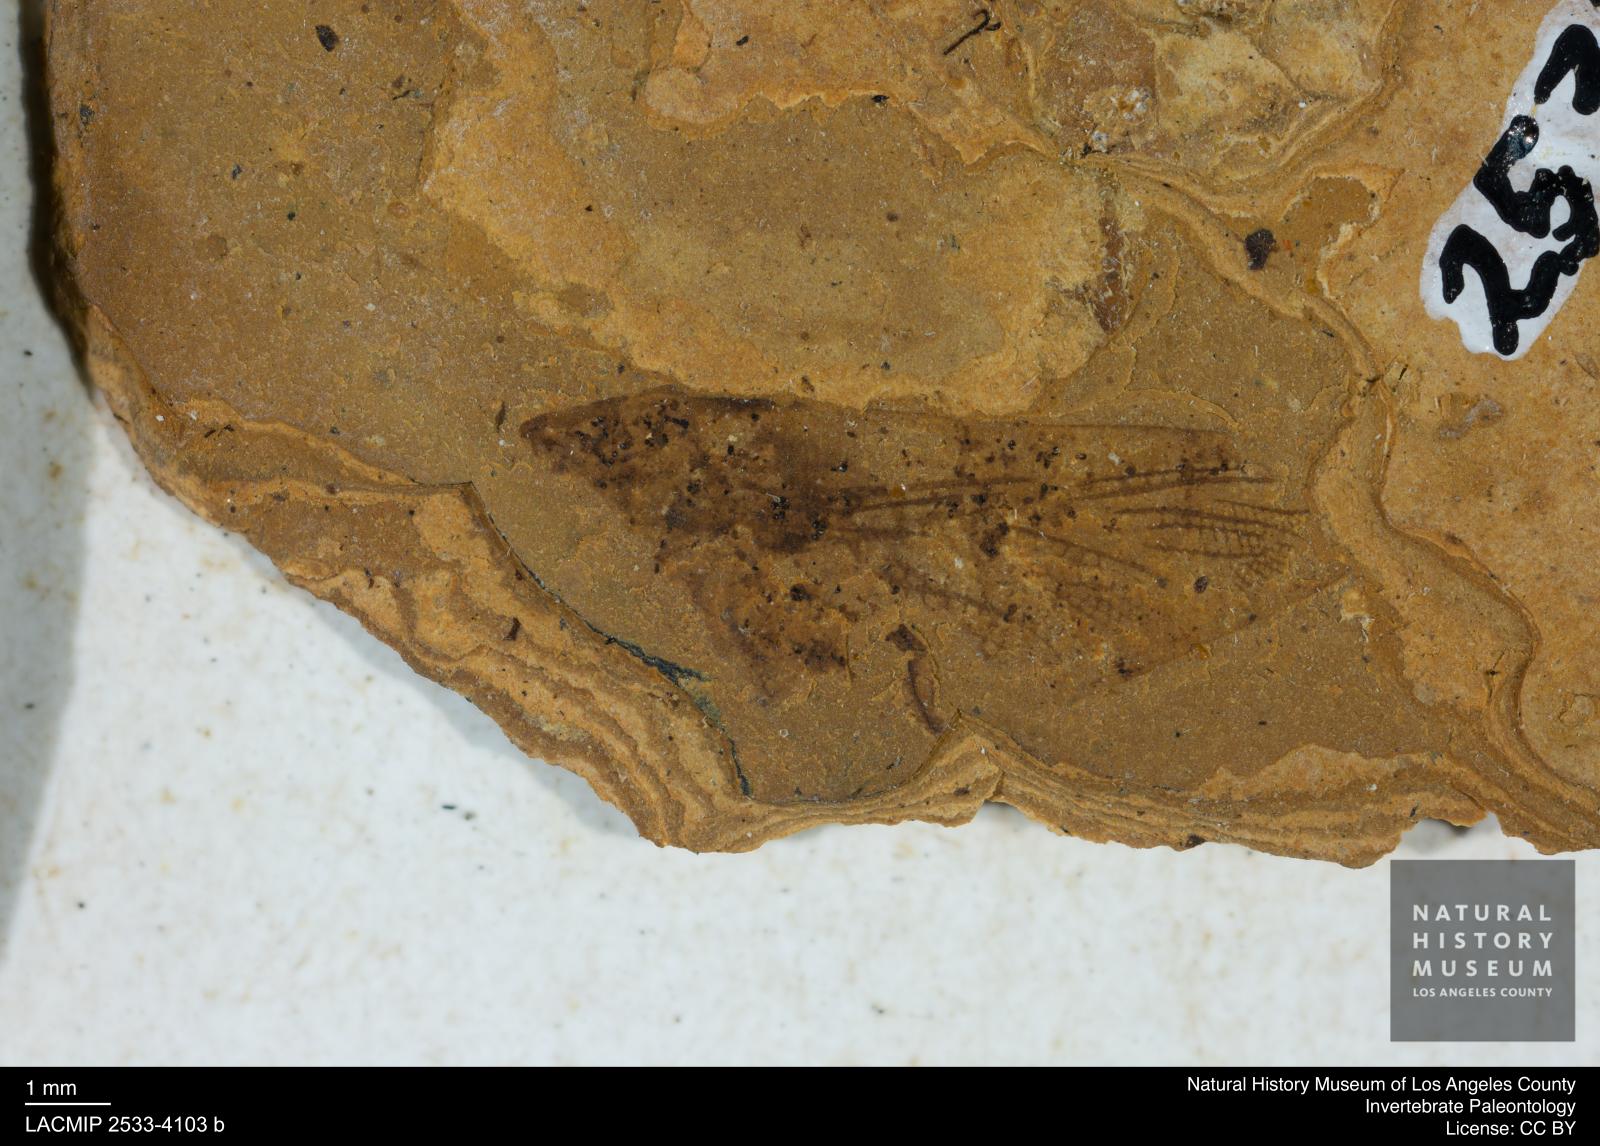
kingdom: Animalia
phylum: Arthropoda
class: Insecta
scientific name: Insecta
